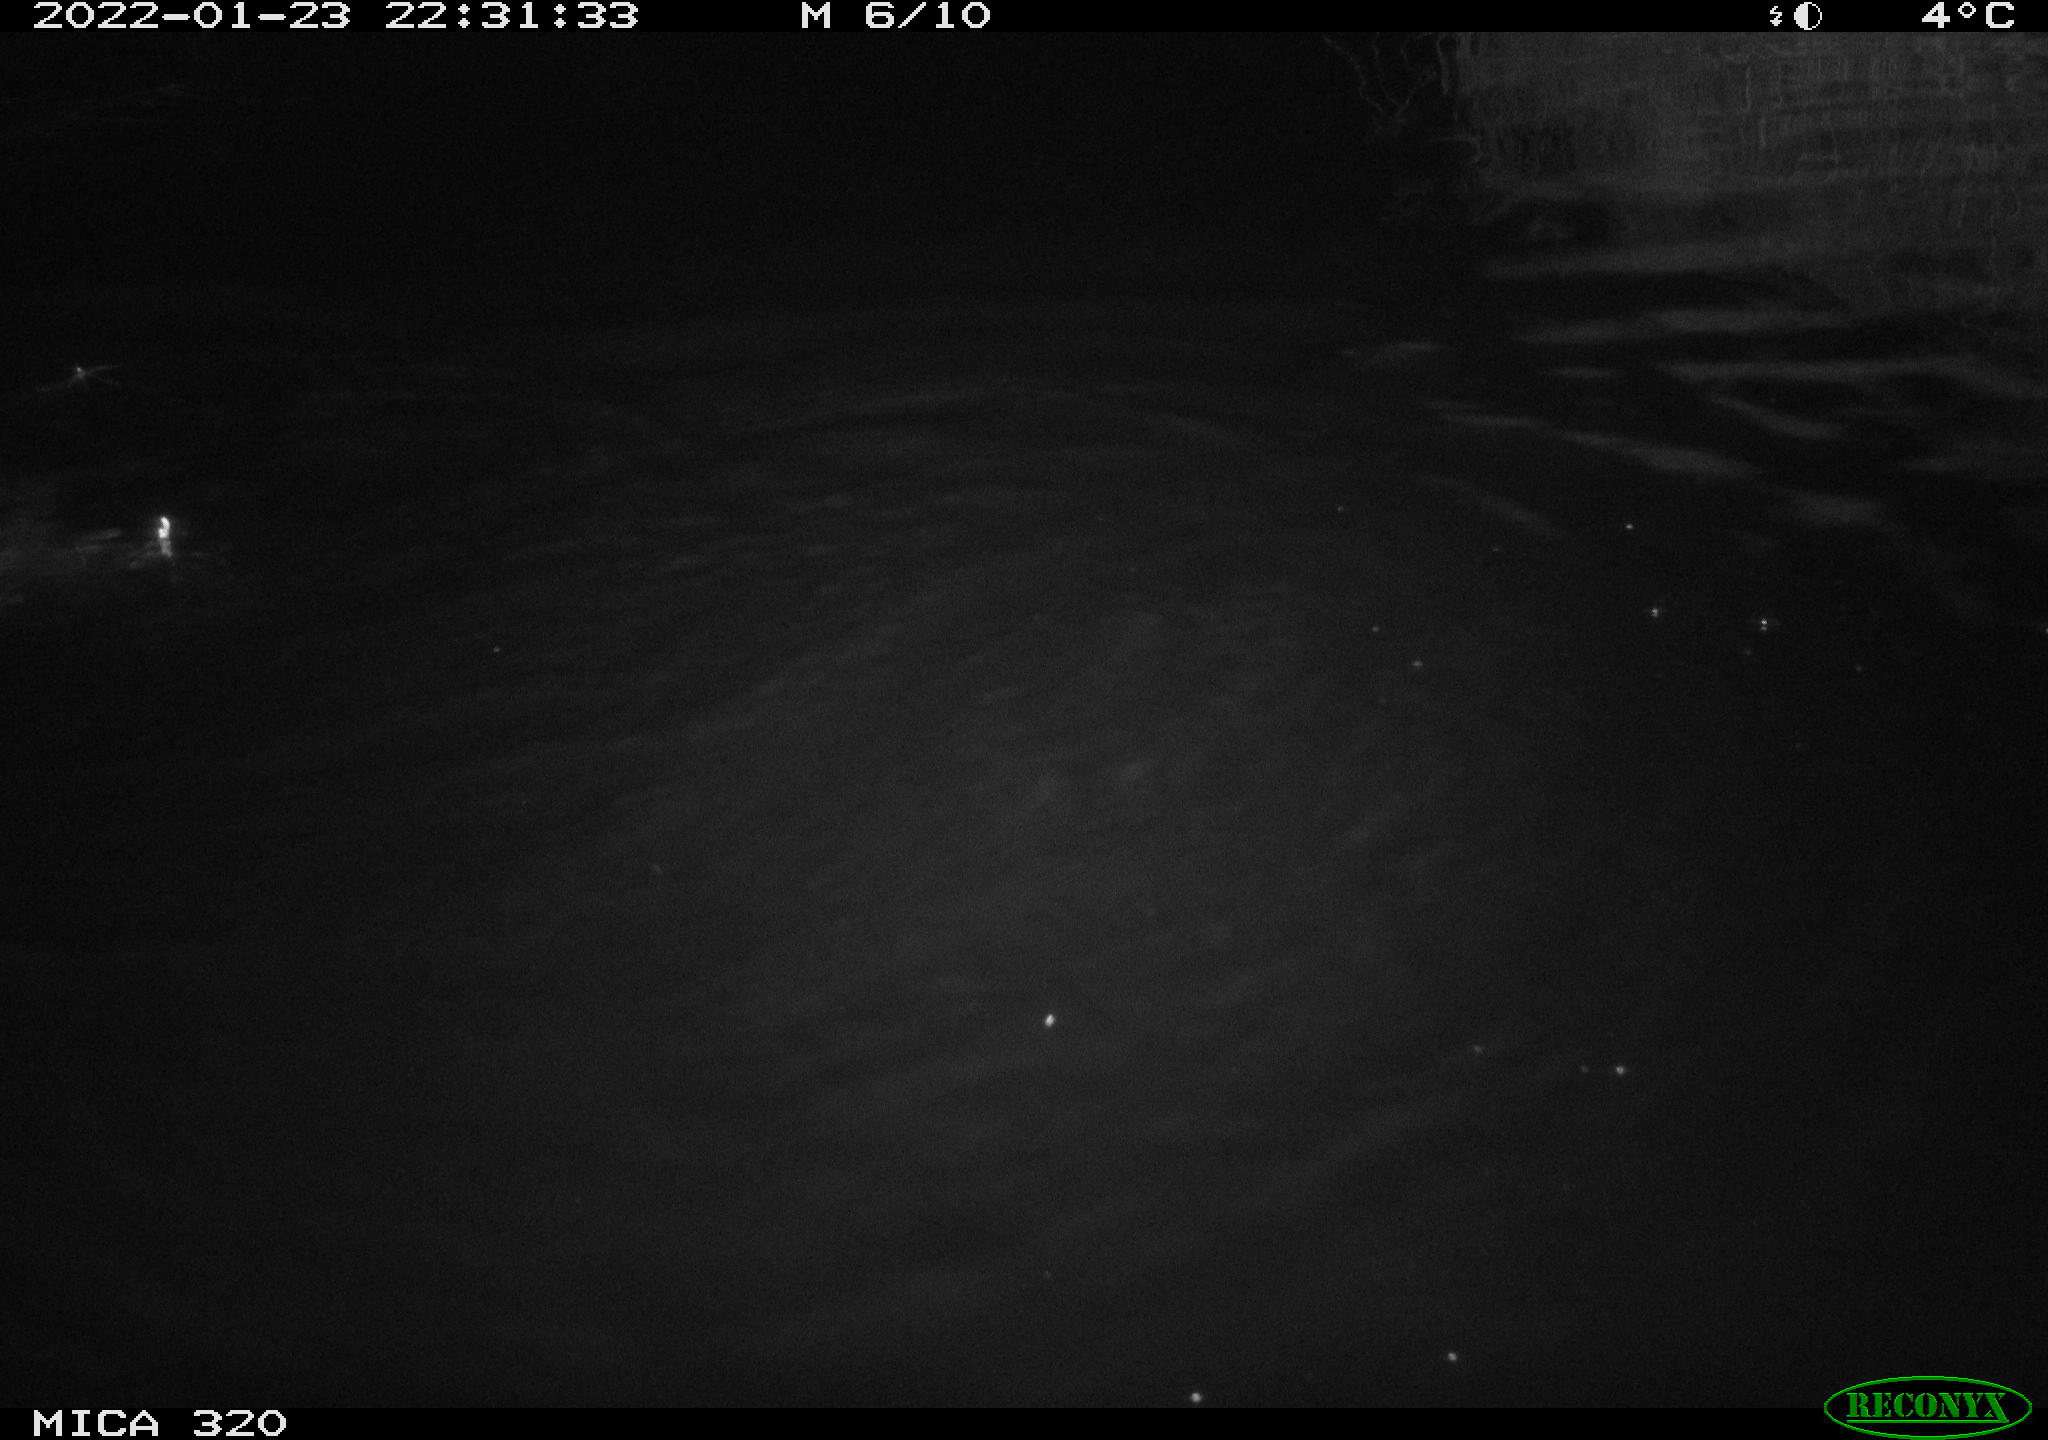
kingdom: Animalia
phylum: Chordata
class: Aves
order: Gruiformes
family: Rallidae
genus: Gallinula
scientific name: Gallinula chloropus
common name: Common moorhen
